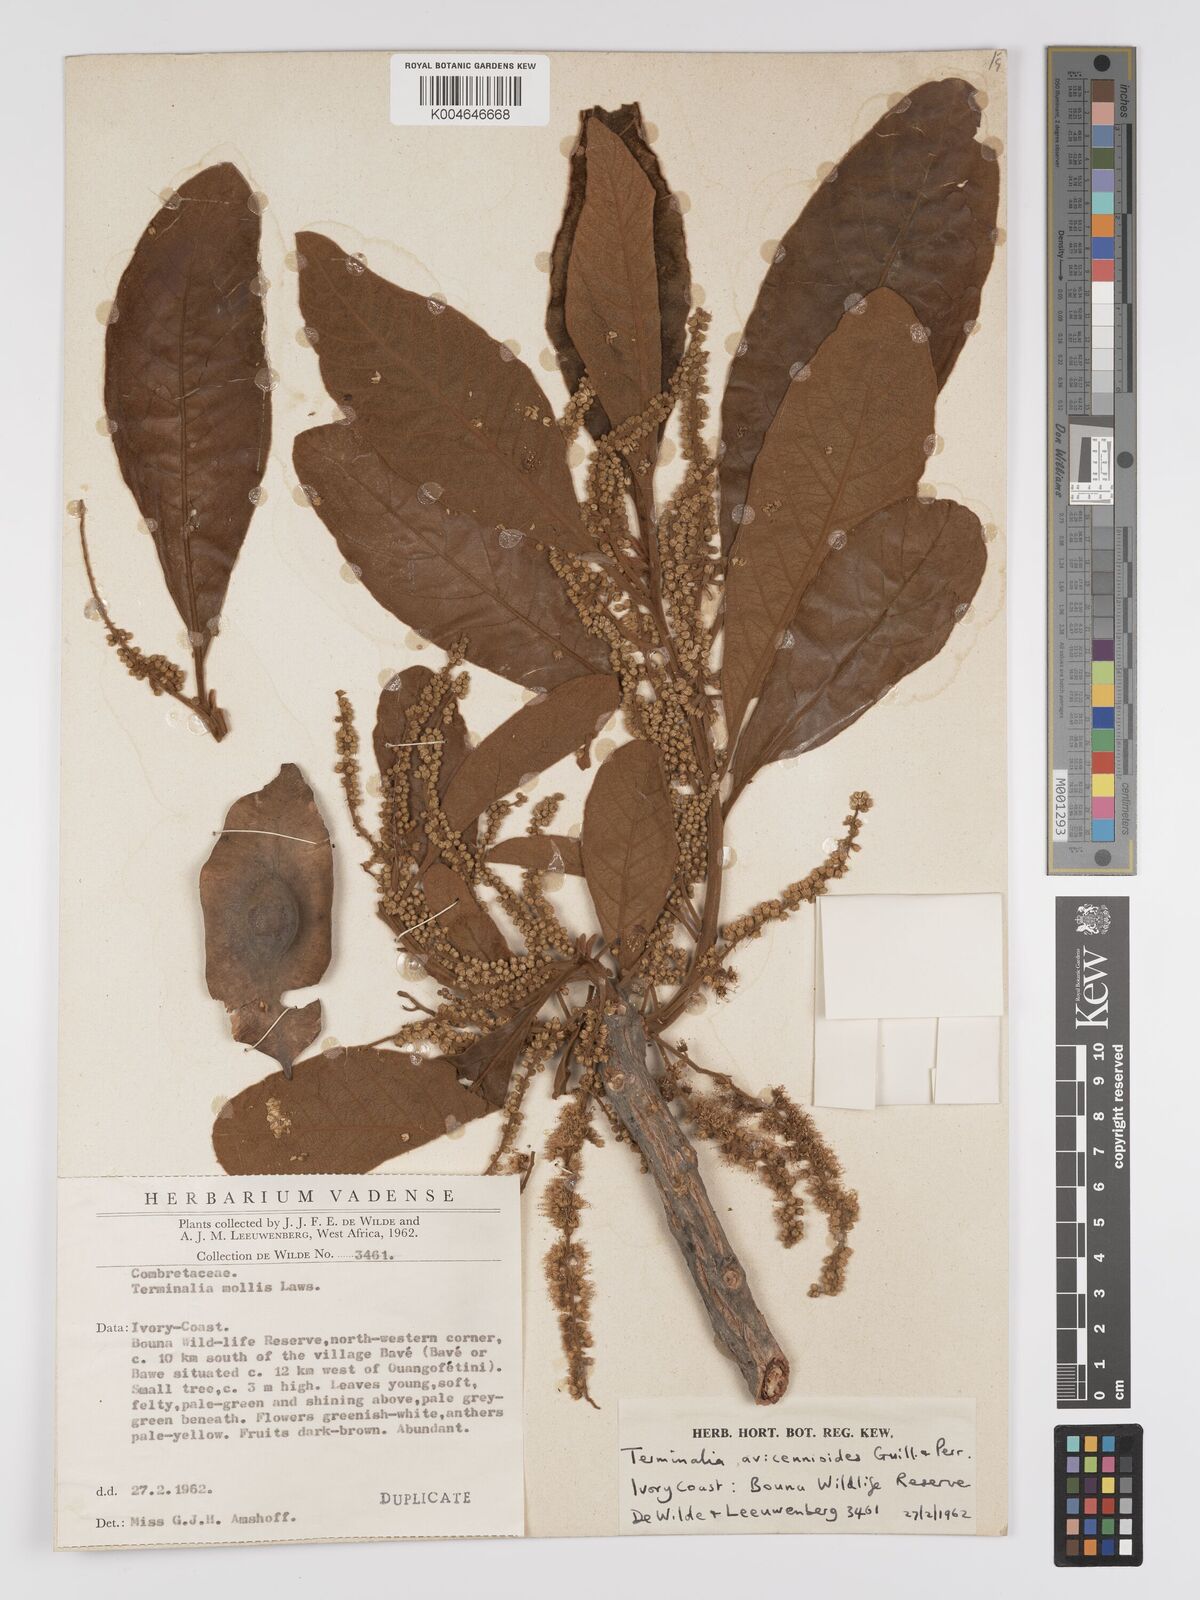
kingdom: Plantae
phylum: Tracheophyta
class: Magnoliopsida
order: Myrtales
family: Combretaceae
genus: Terminalia
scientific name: Terminalia avicennioides
